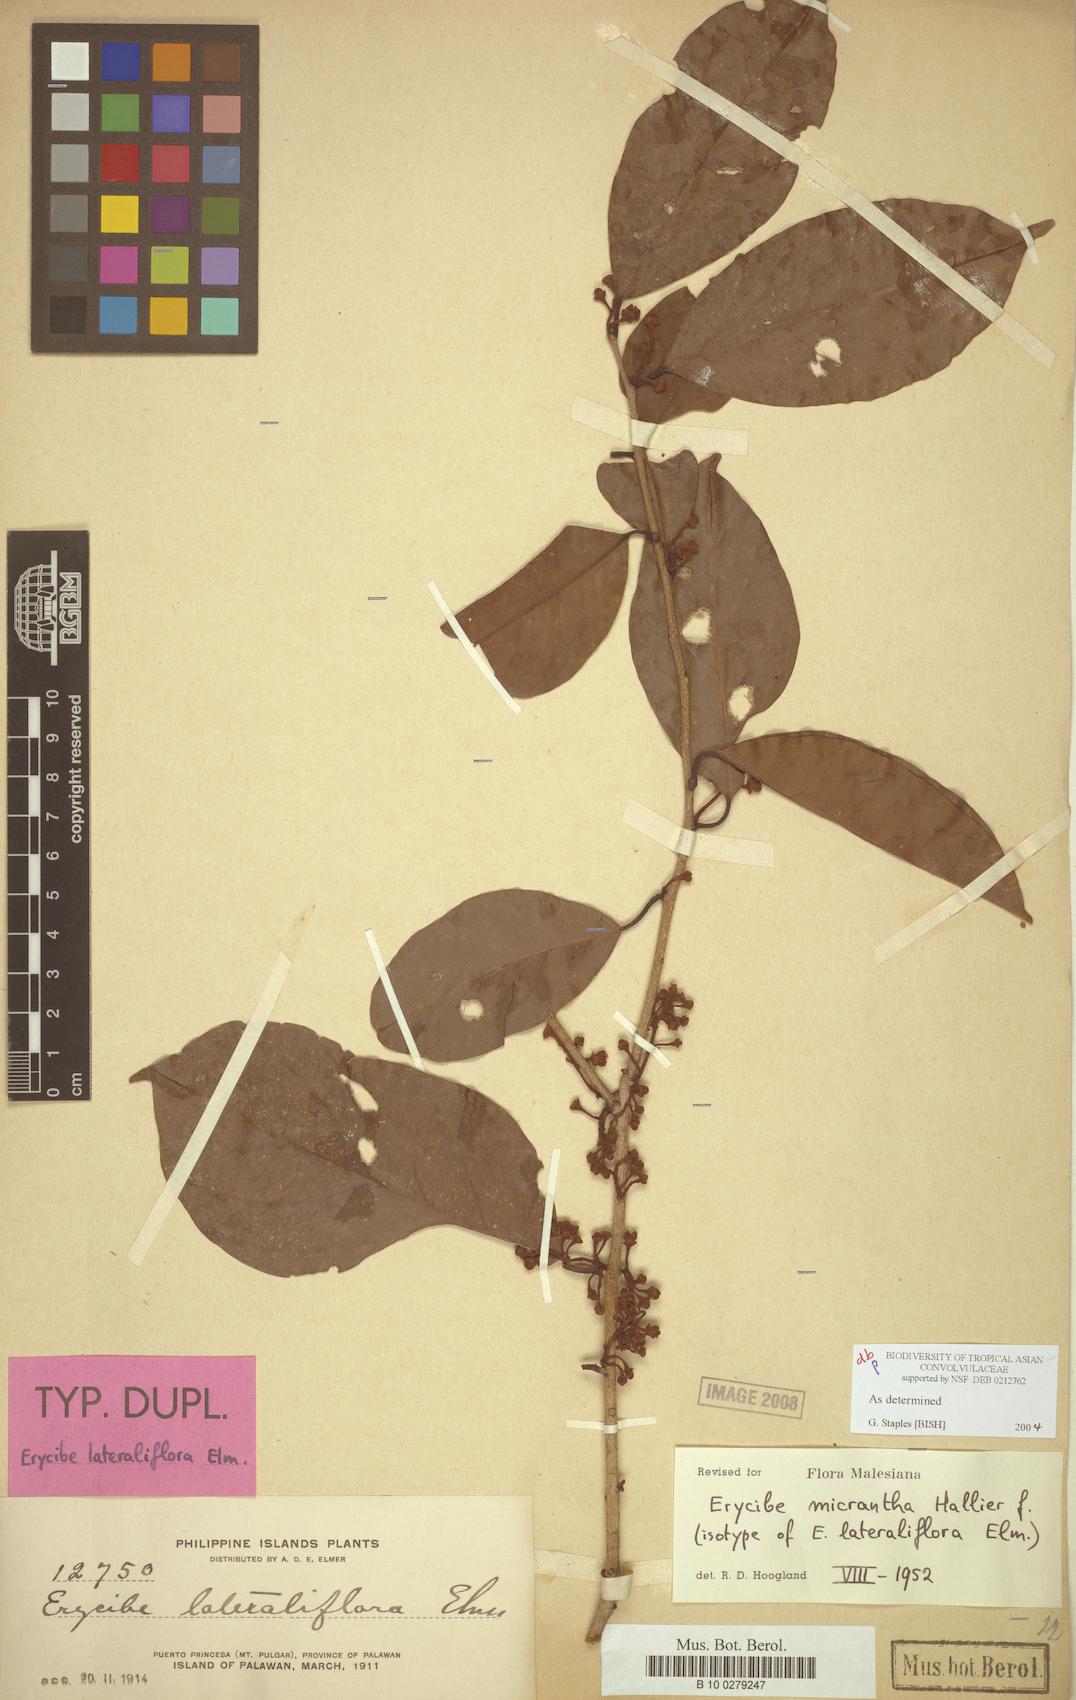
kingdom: Plantae
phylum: Tracheophyta
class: Magnoliopsida
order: Solanales
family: Convolvulaceae
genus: Erycibe
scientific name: Erycibe micrantha
